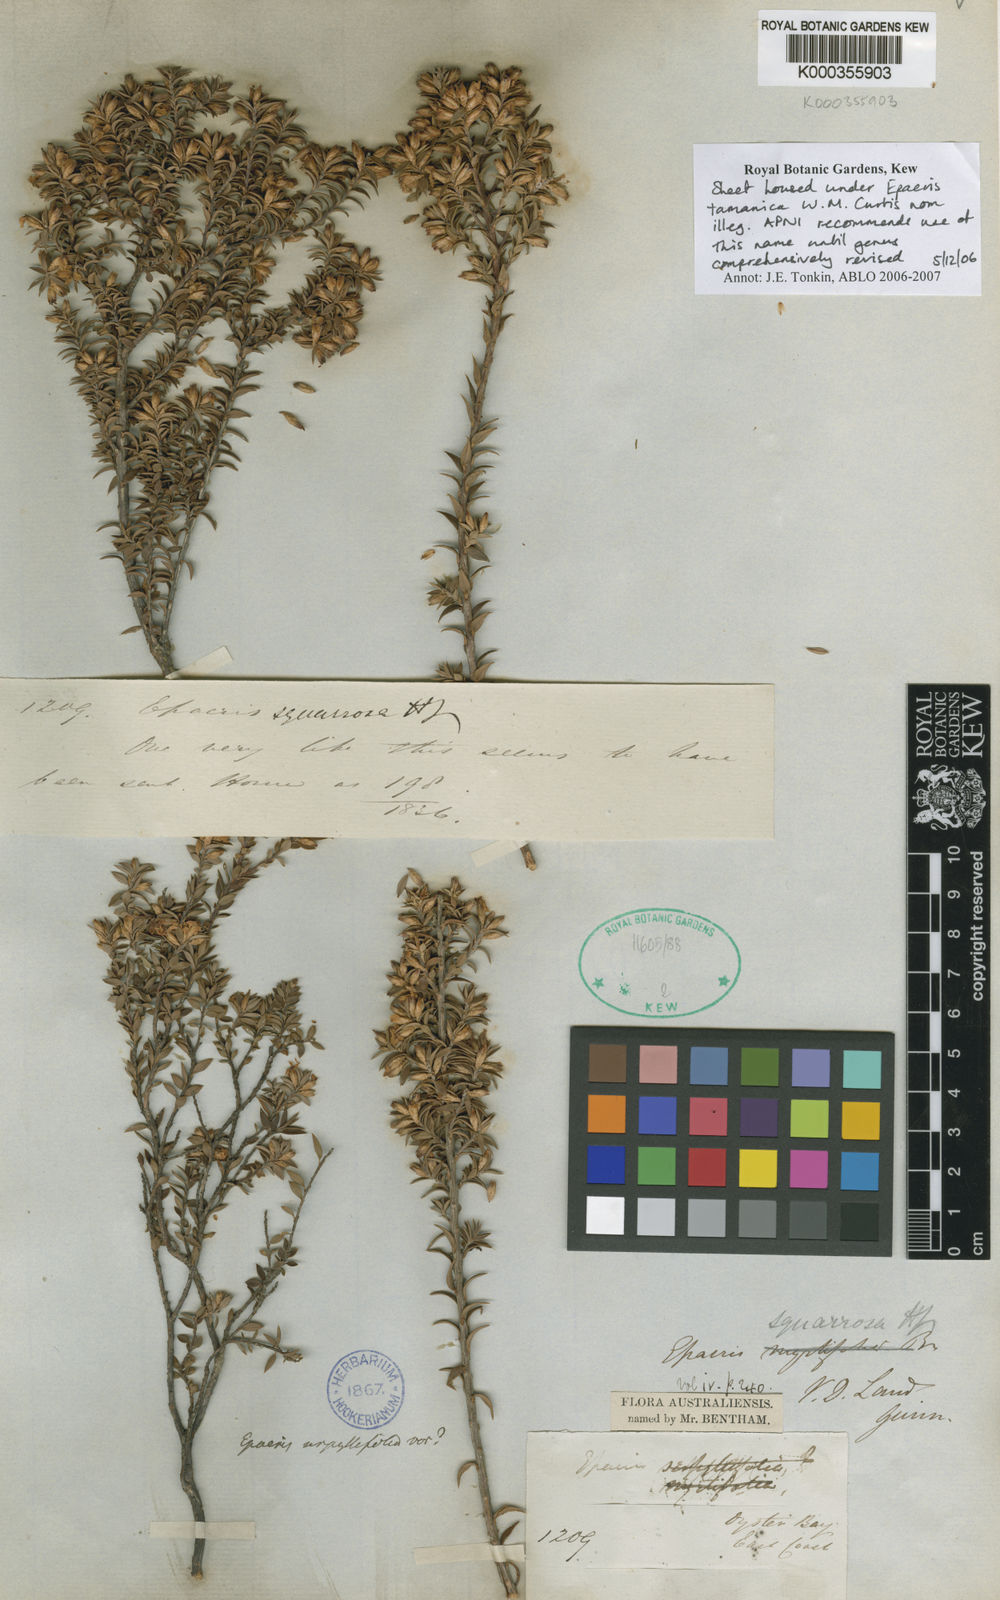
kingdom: Plantae
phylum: Tracheophyta
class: Magnoliopsida
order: Ericales
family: Ericaceae
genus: Epacris
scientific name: Epacris tasmanica
